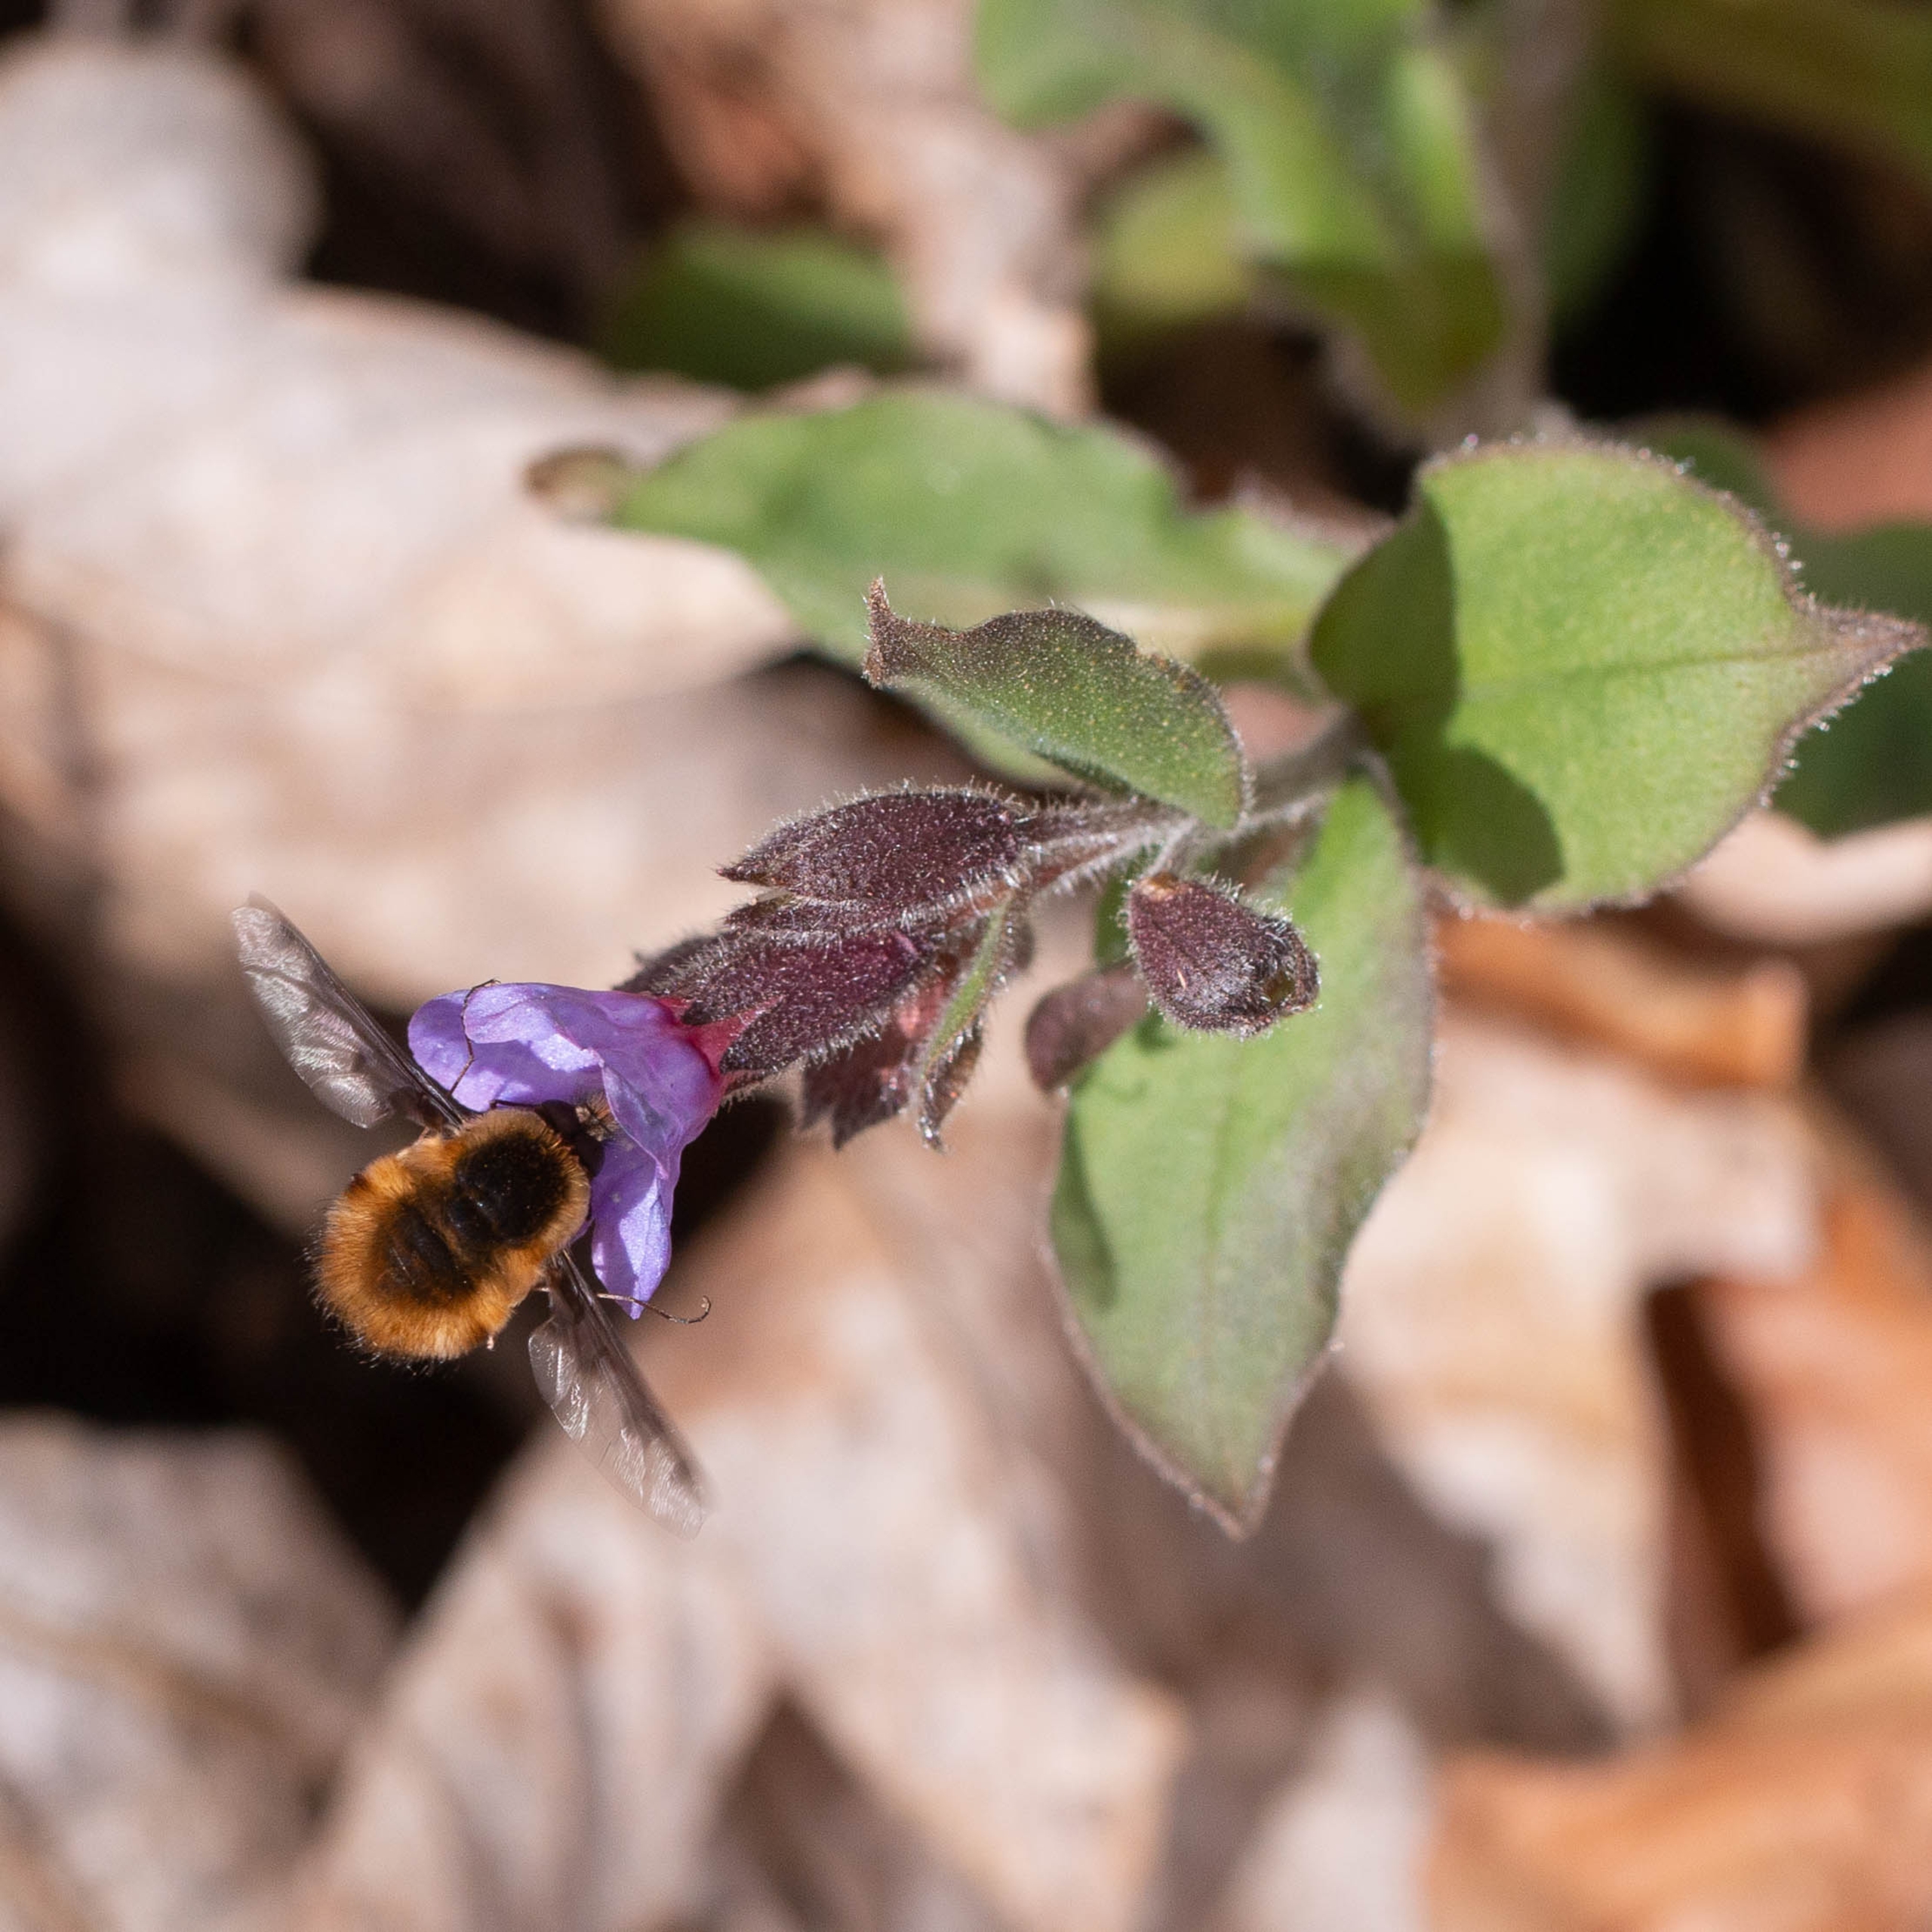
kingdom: Animalia
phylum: Arthropoda
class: Insecta
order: Diptera
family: Bombyliidae
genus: Bombylius
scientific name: Bombylius major
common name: Stor humleflue
